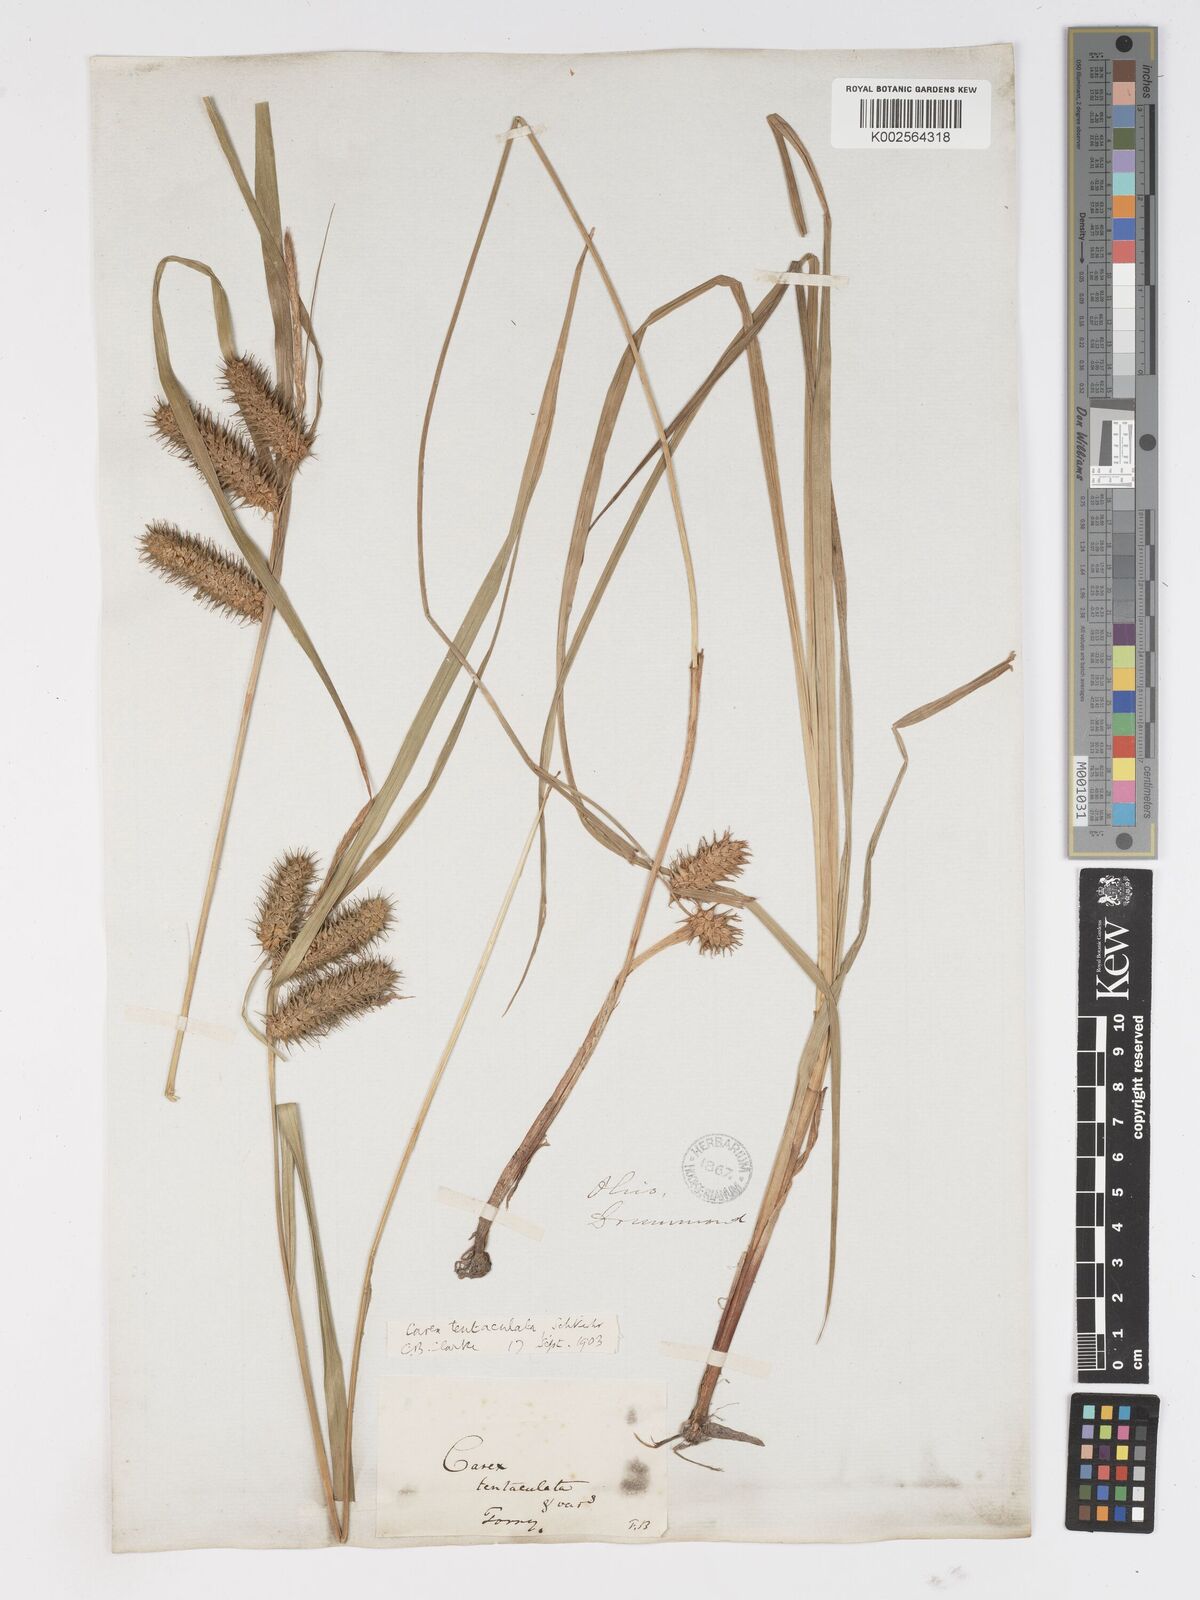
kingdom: Plantae
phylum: Tracheophyta
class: Liliopsida
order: Poales
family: Cyperaceae
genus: Carex
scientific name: Carex lurida
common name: Sallow sedge
